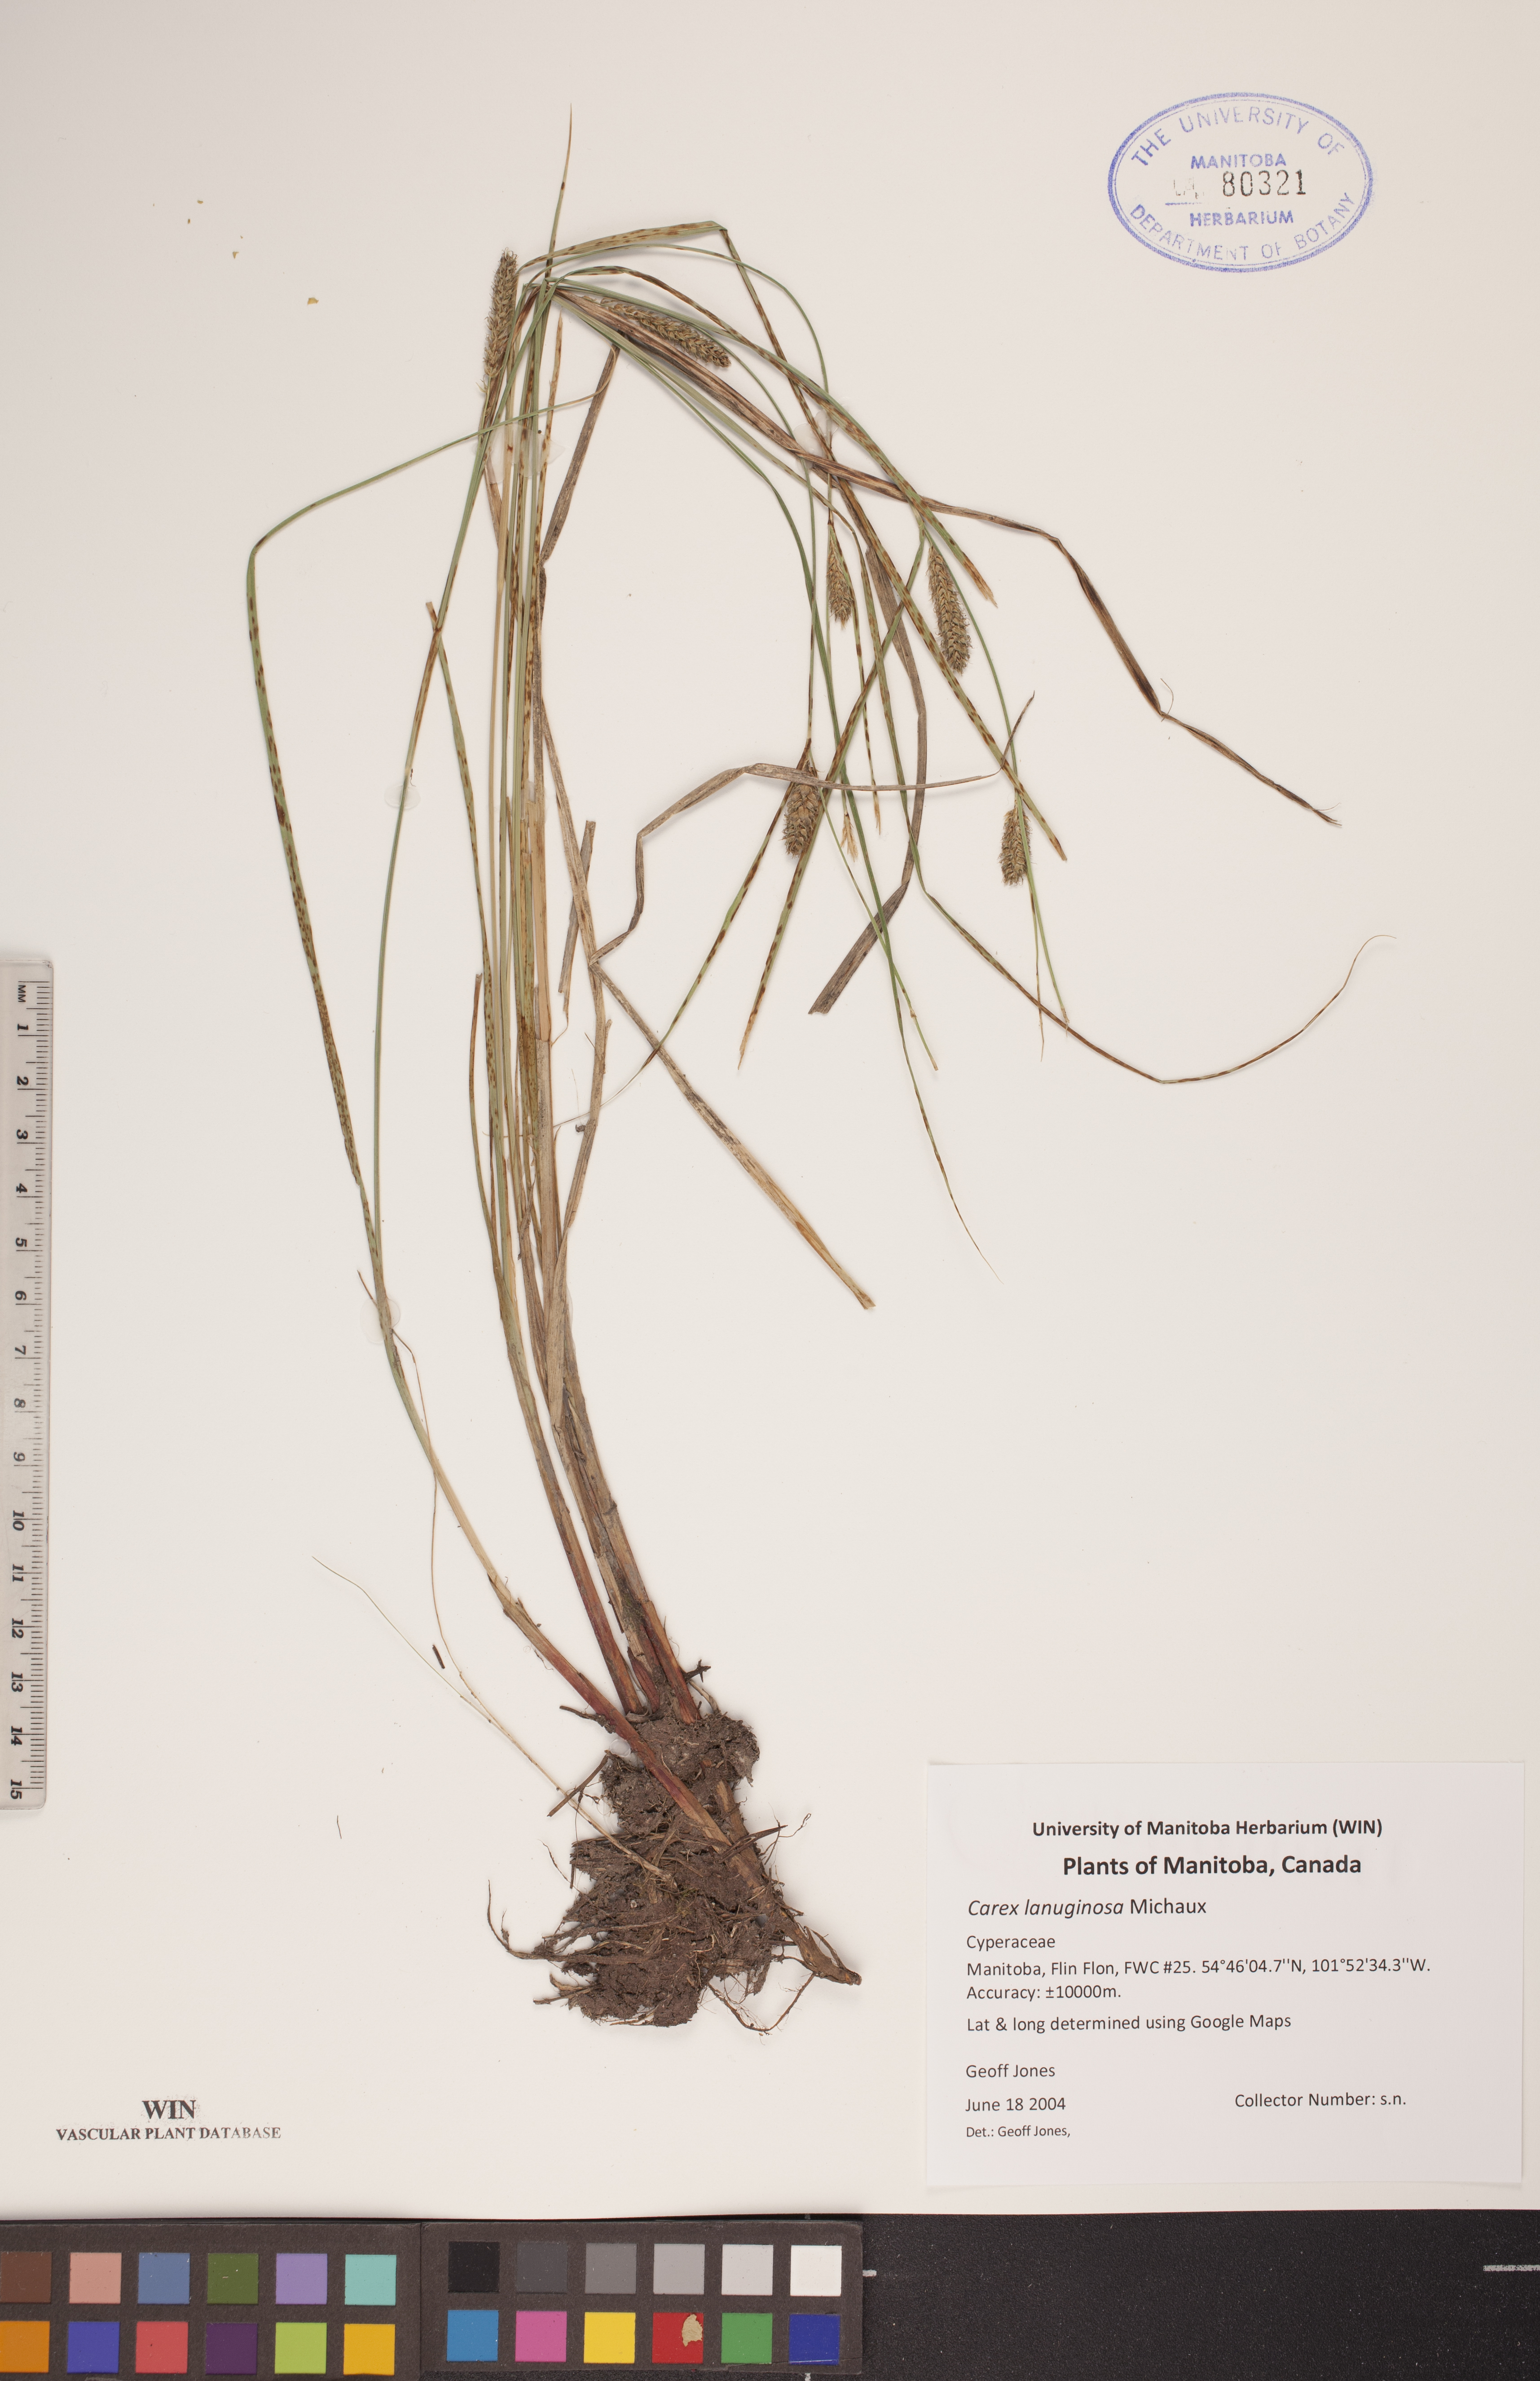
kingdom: Plantae
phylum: Tracheophyta
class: Liliopsida
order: Poales
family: Cyperaceae
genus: Carex
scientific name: Carex lasiocarpa
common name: Slender sedge
